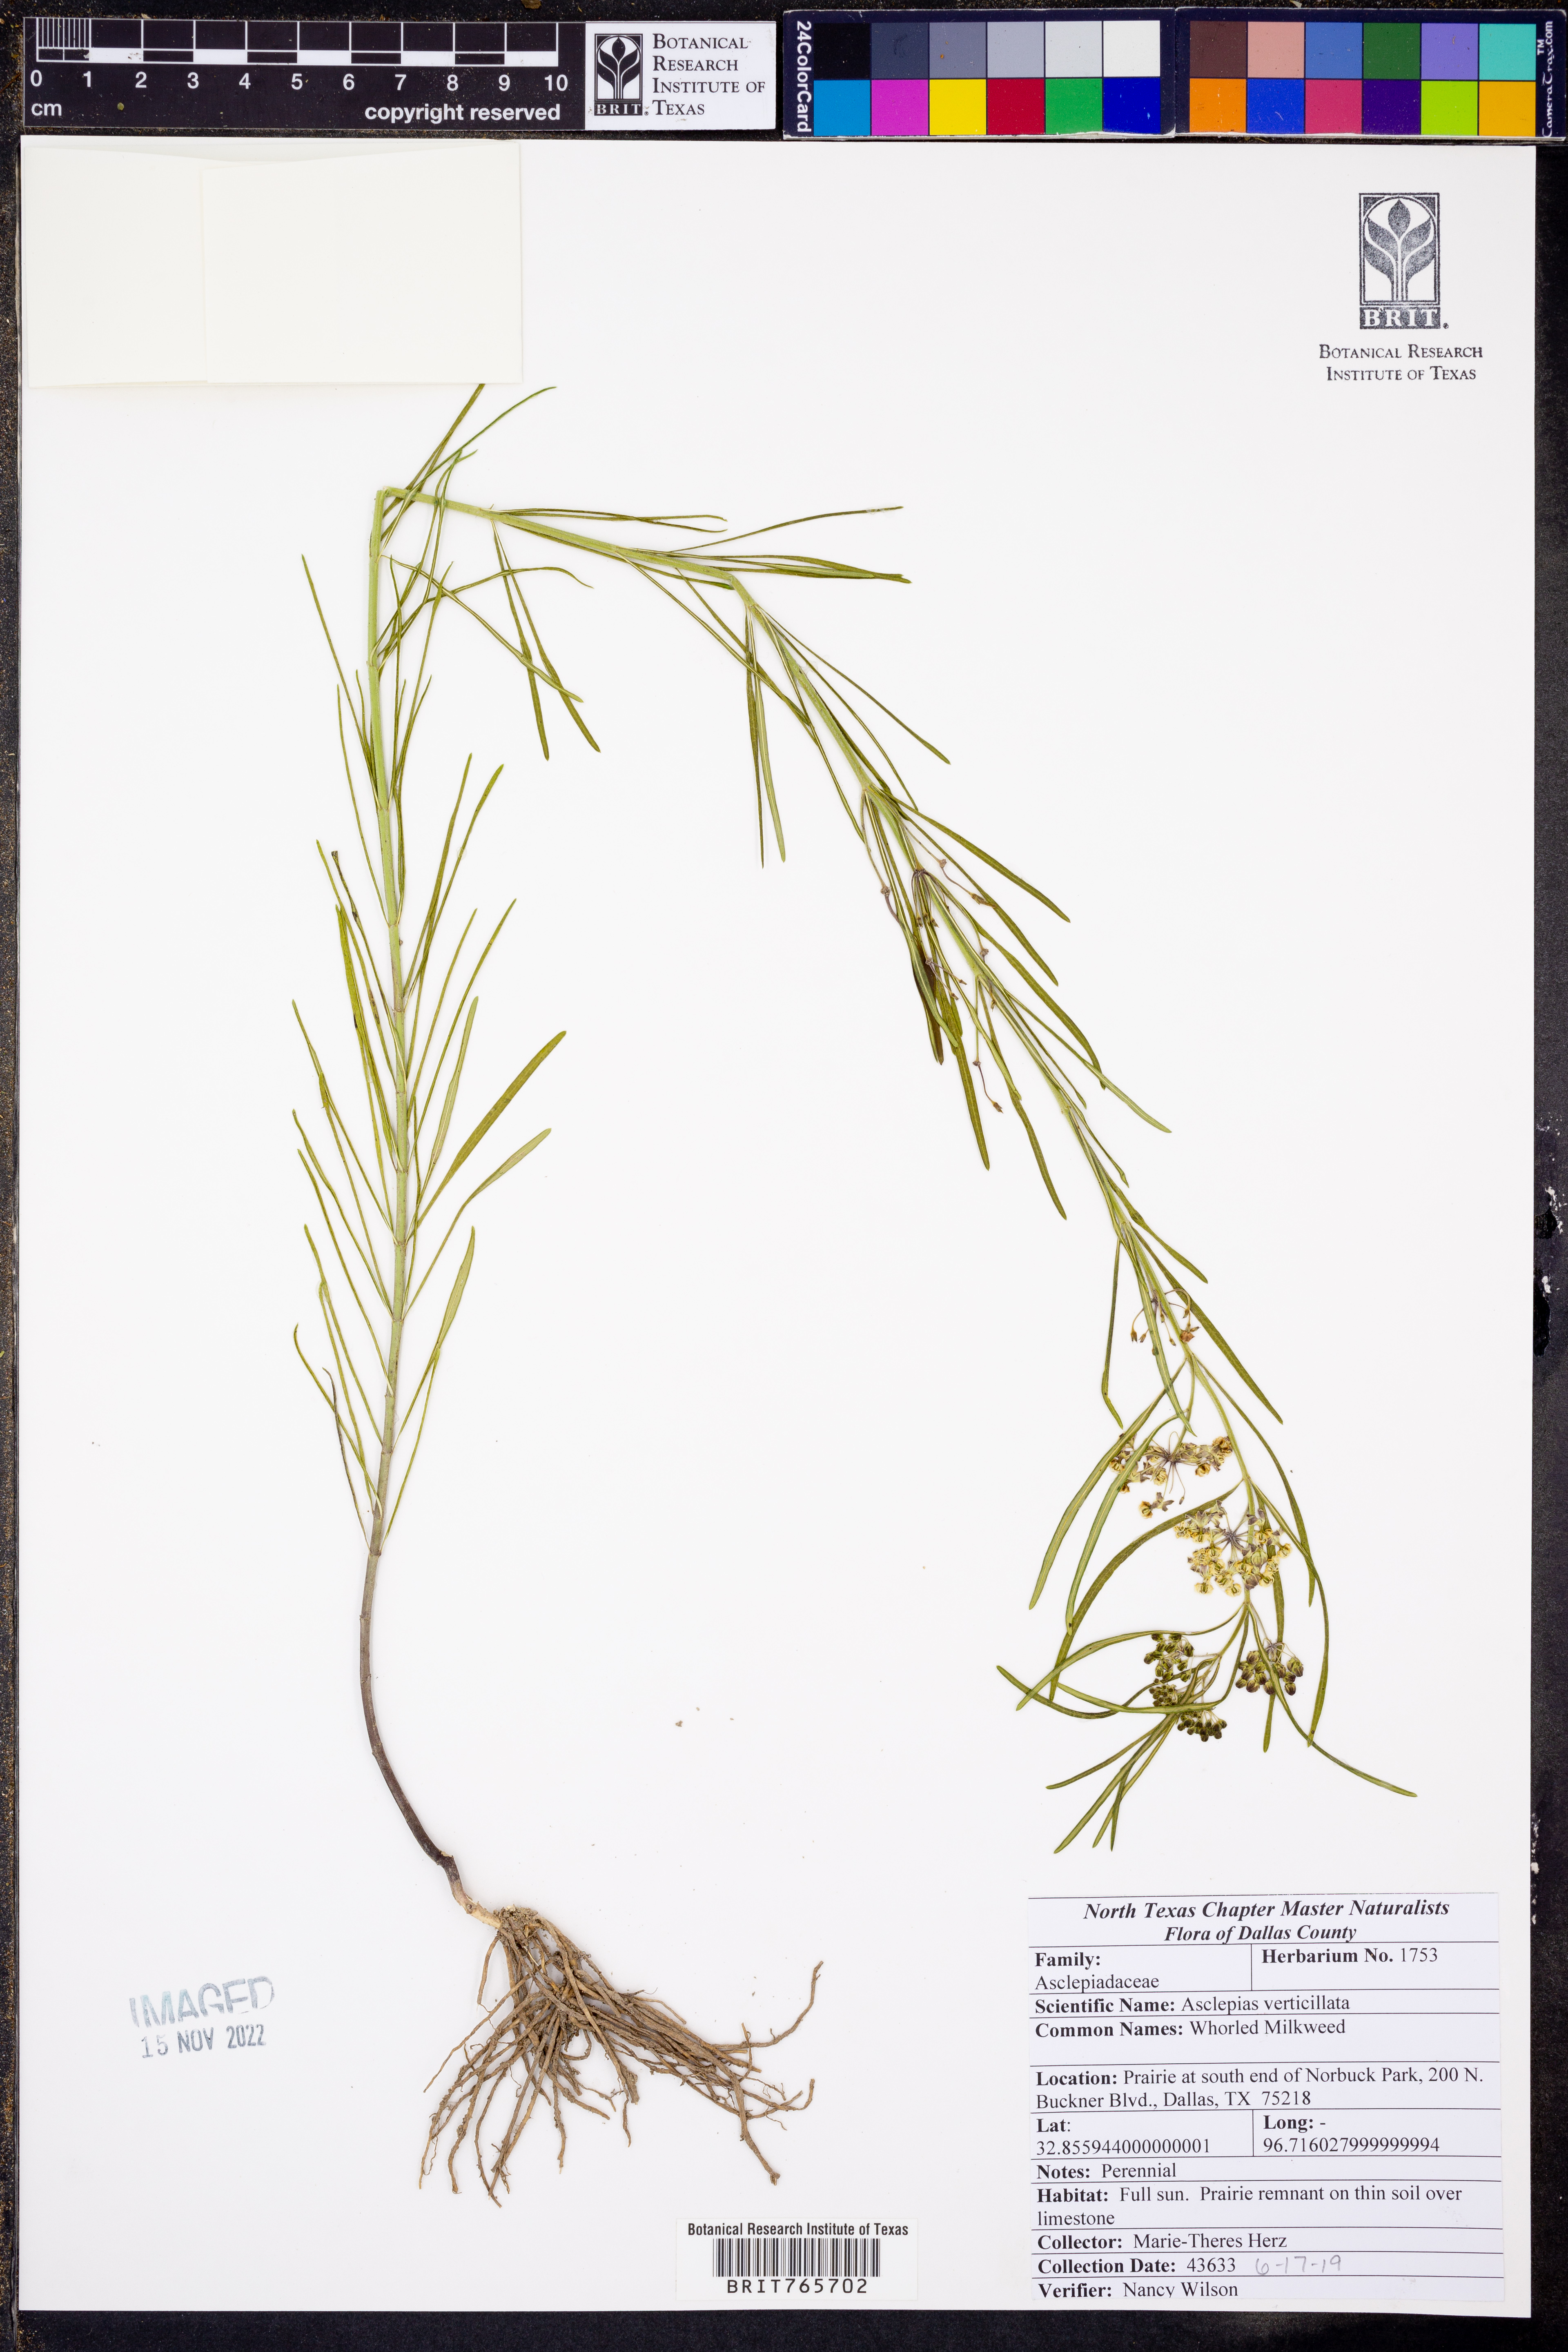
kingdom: Plantae
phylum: Tracheophyta
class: Magnoliopsida
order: Gentianales
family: Apocynaceae
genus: Asclepias
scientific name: Asclepias verticillata
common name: Eastern whorled milkweed
